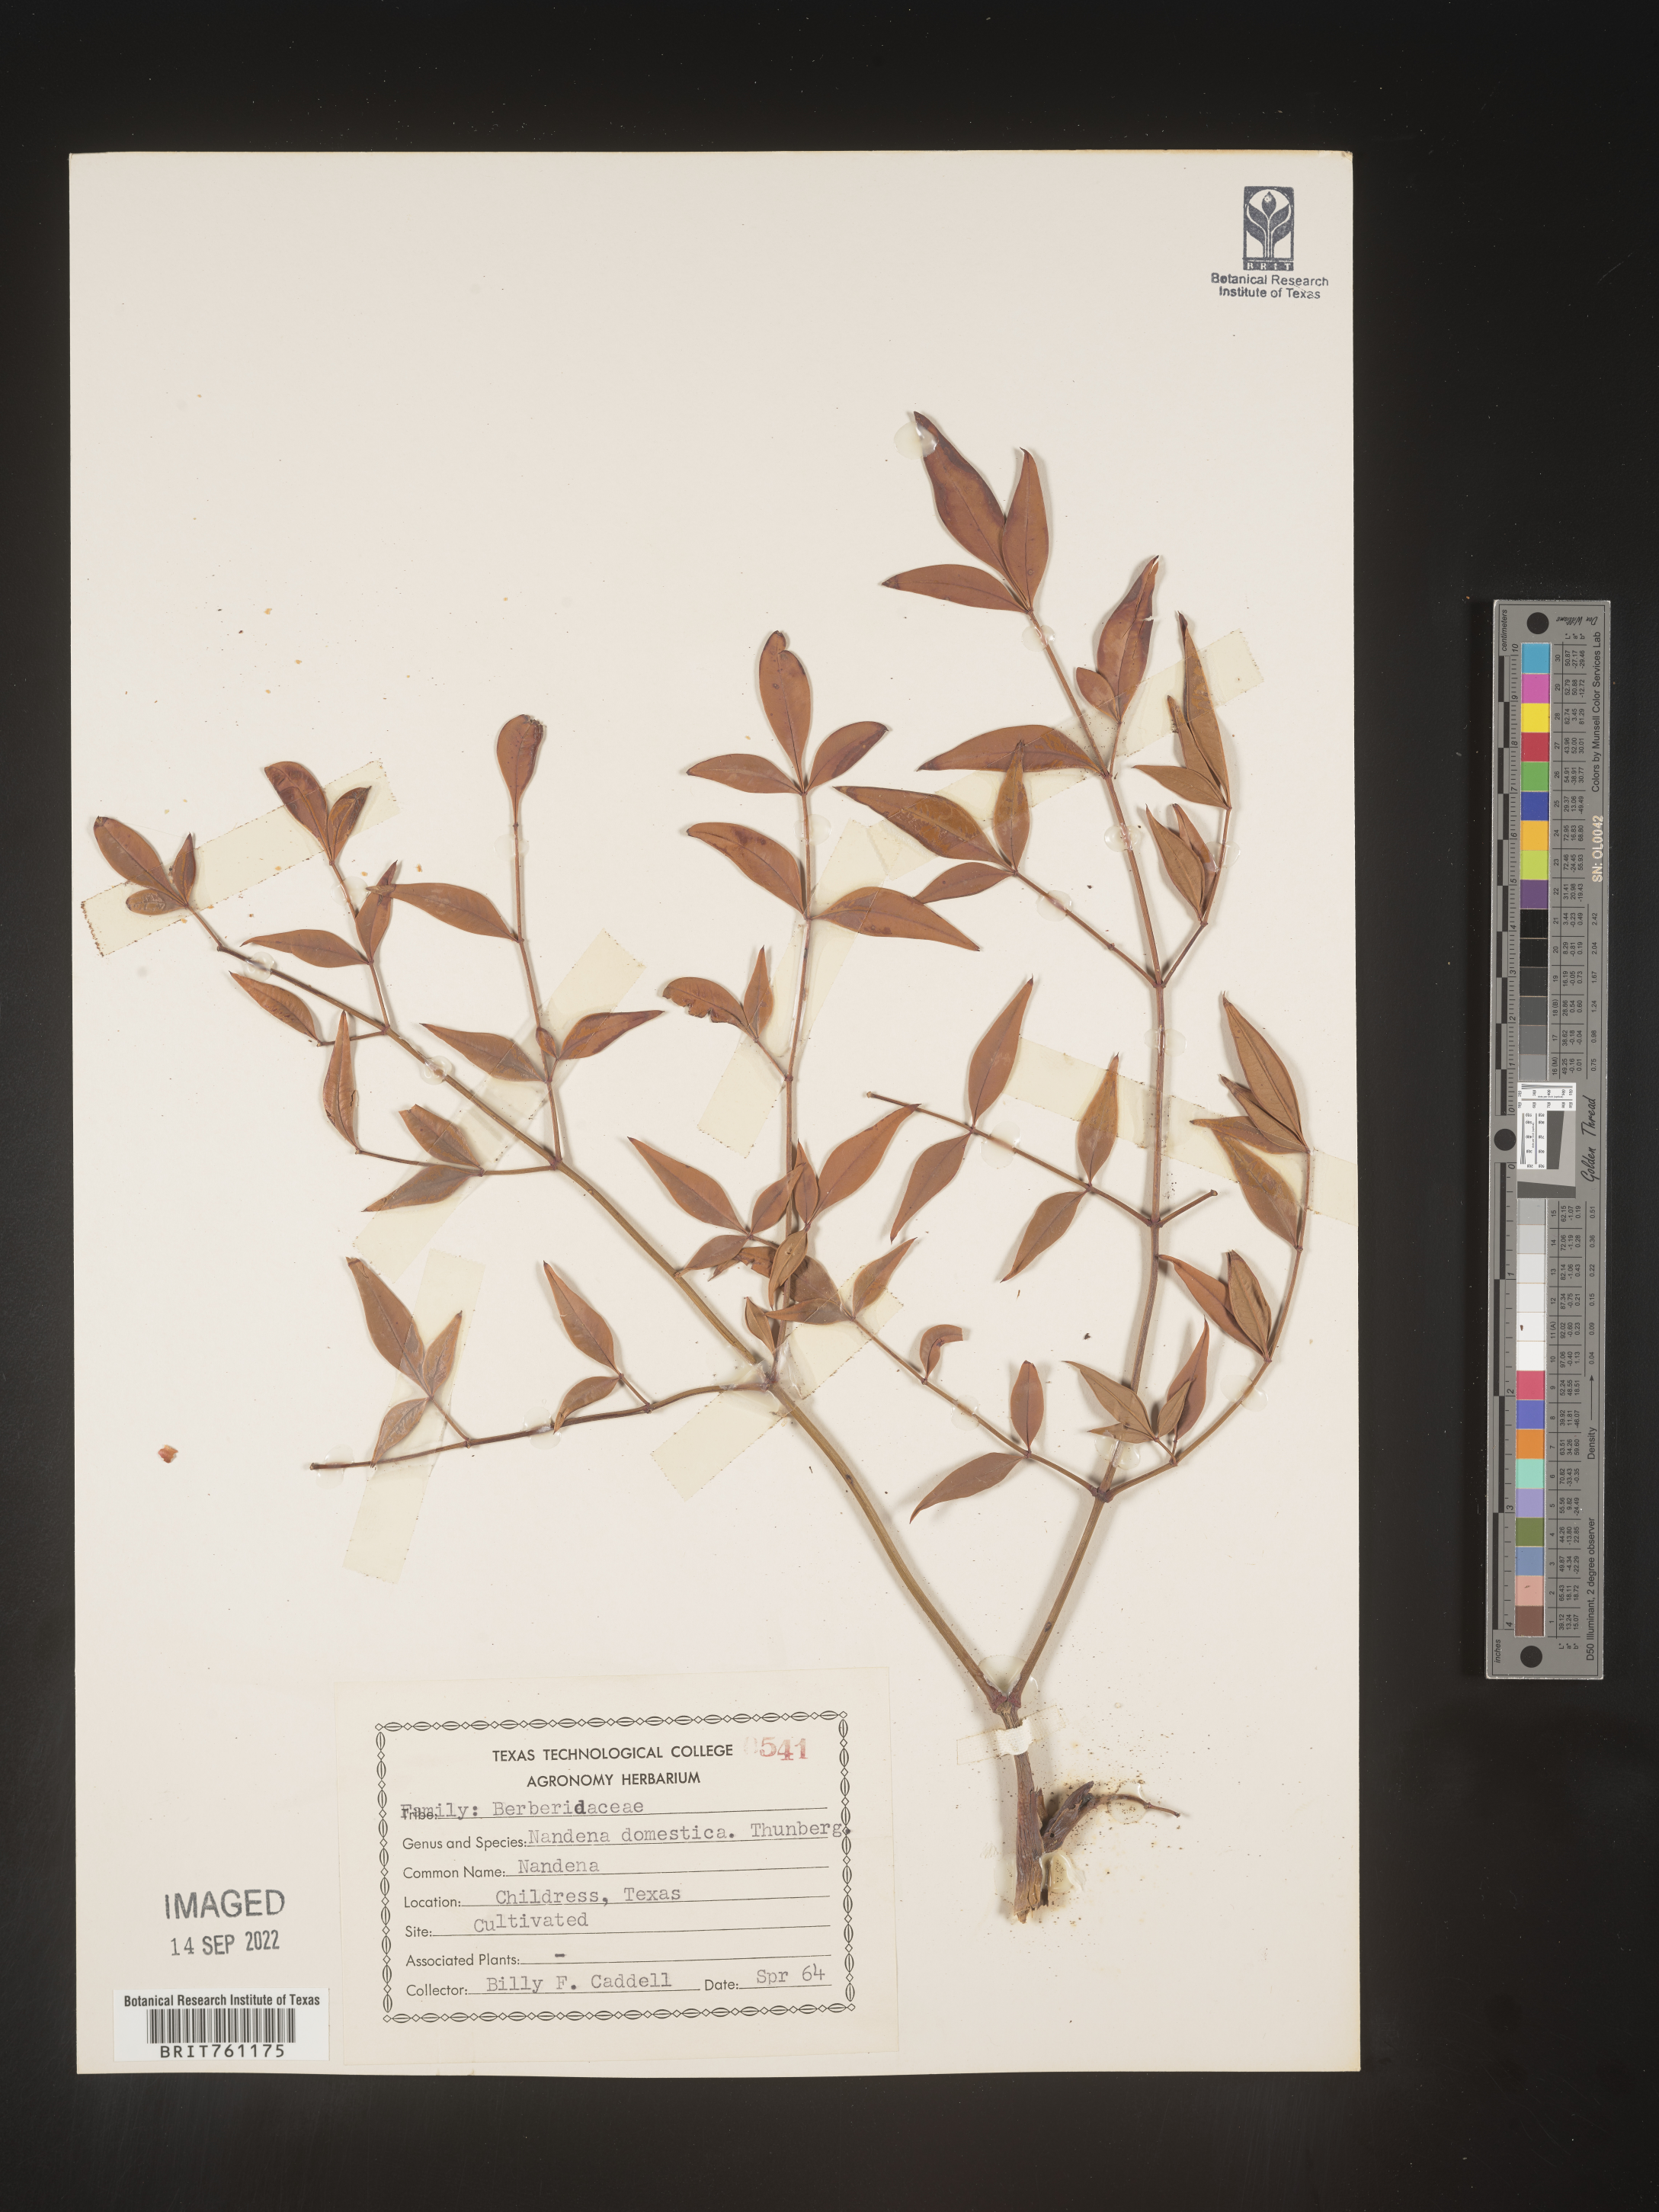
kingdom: Plantae
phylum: Tracheophyta
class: Magnoliopsida
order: Ranunculales
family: Berberidaceae
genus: Nandina
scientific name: Nandina
